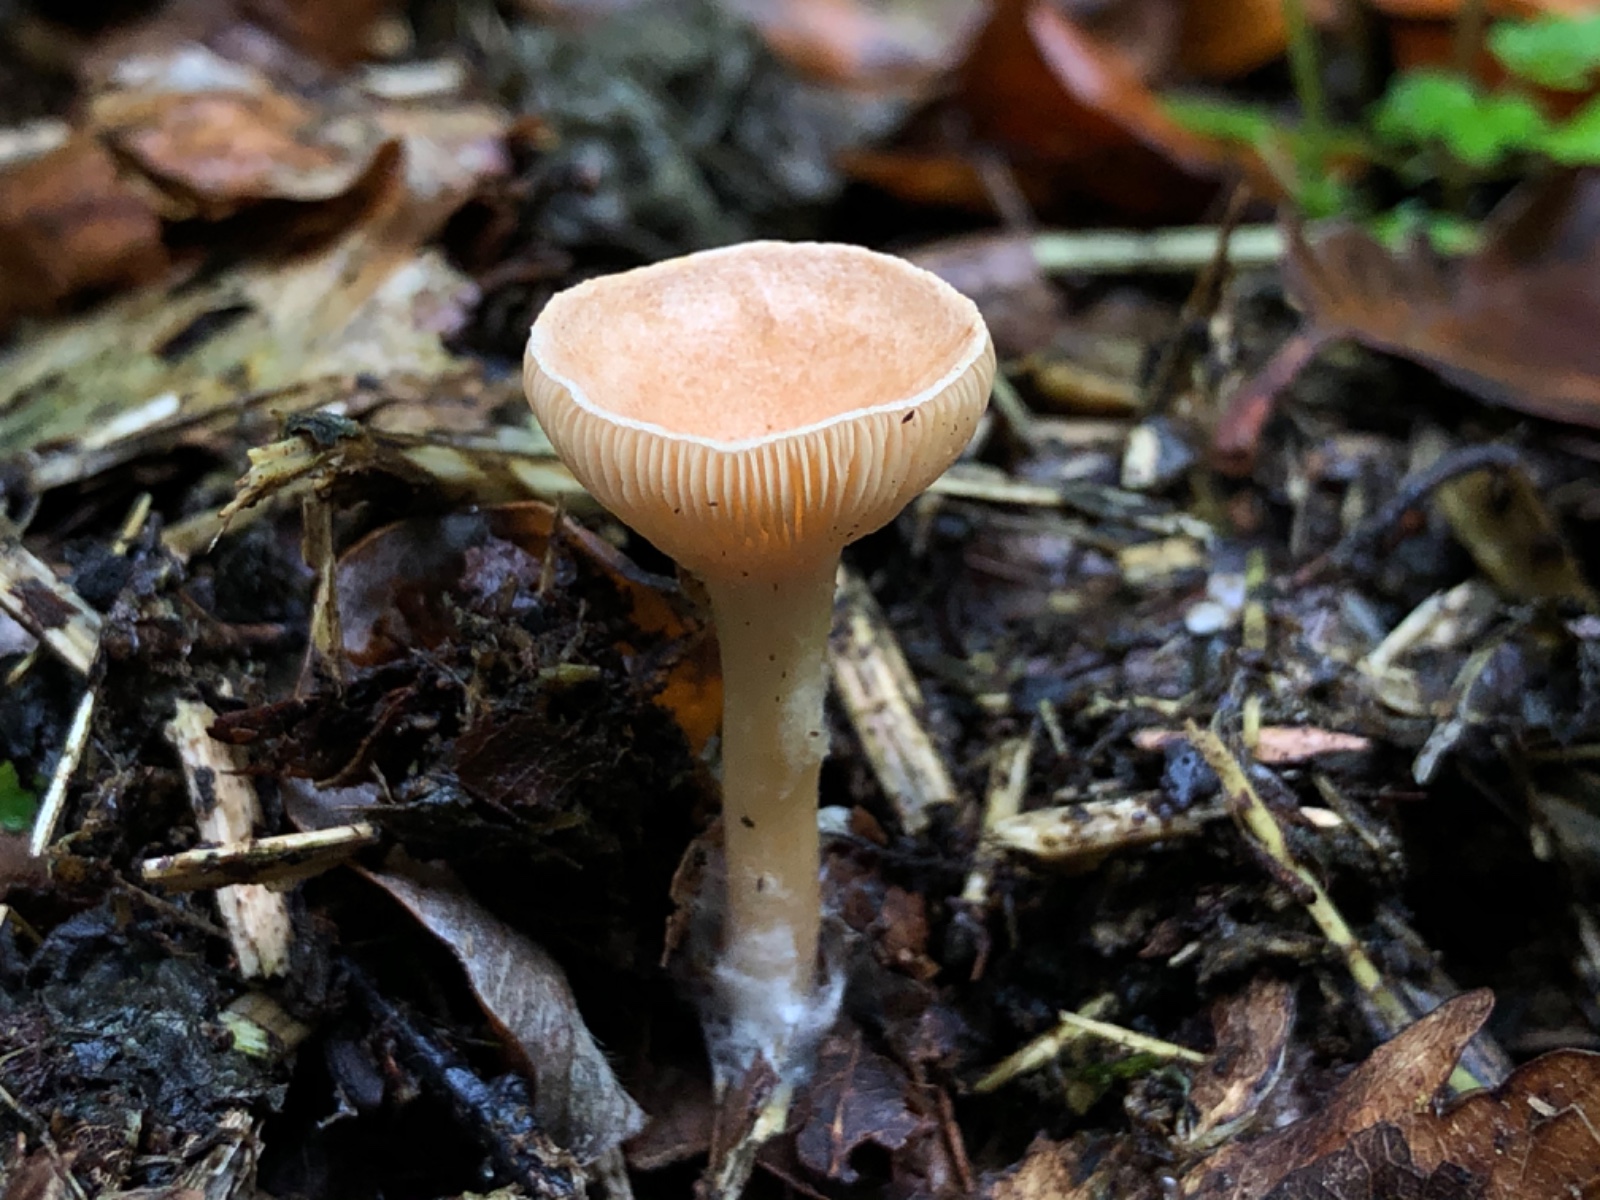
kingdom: Fungi
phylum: Basidiomycota
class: Agaricomycetes
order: Agaricales
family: Tricholomataceae
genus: Infundibulicybe
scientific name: Infundibulicybe
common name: tragthat
